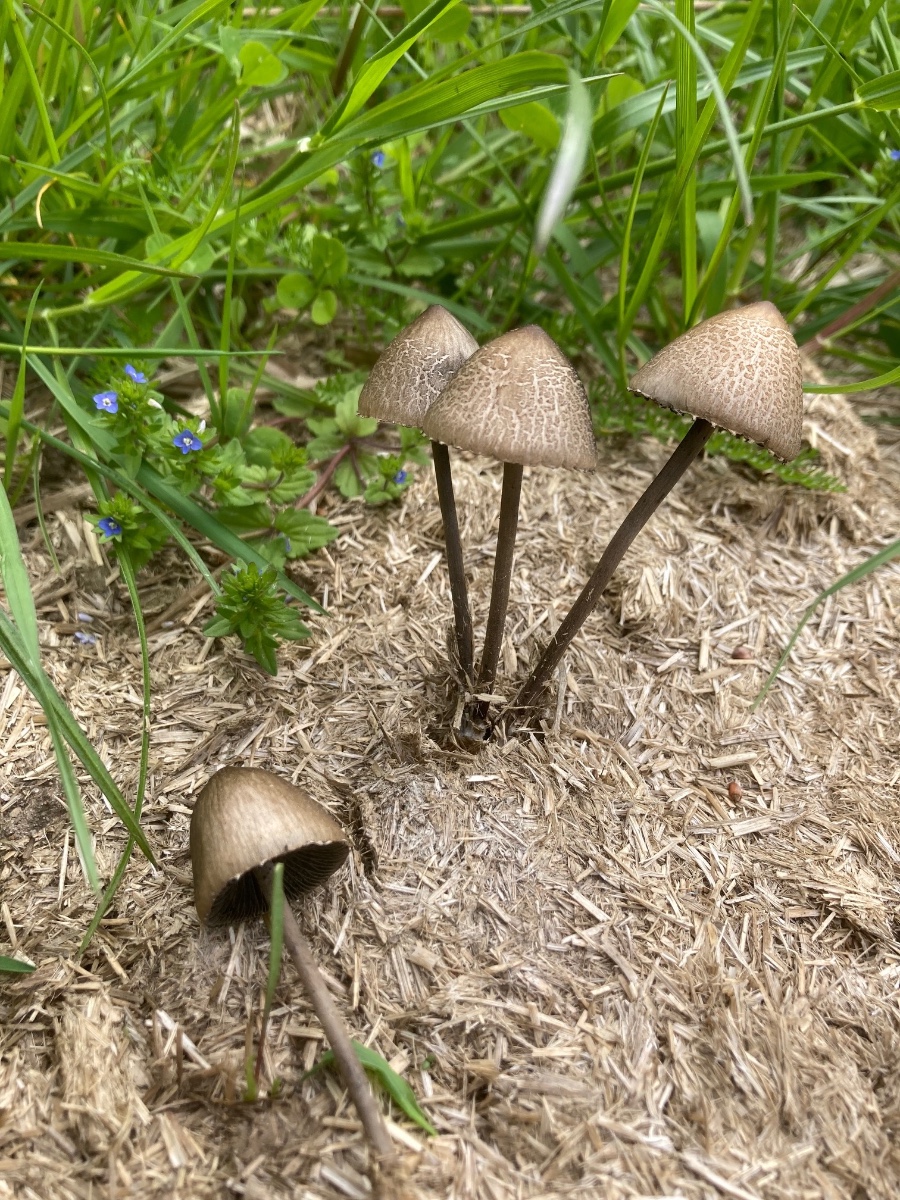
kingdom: Fungi
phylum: Basidiomycota
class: Agaricomycetes
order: Agaricales
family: Bolbitiaceae
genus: Panaeolus
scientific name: Panaeolus papilionaceus
